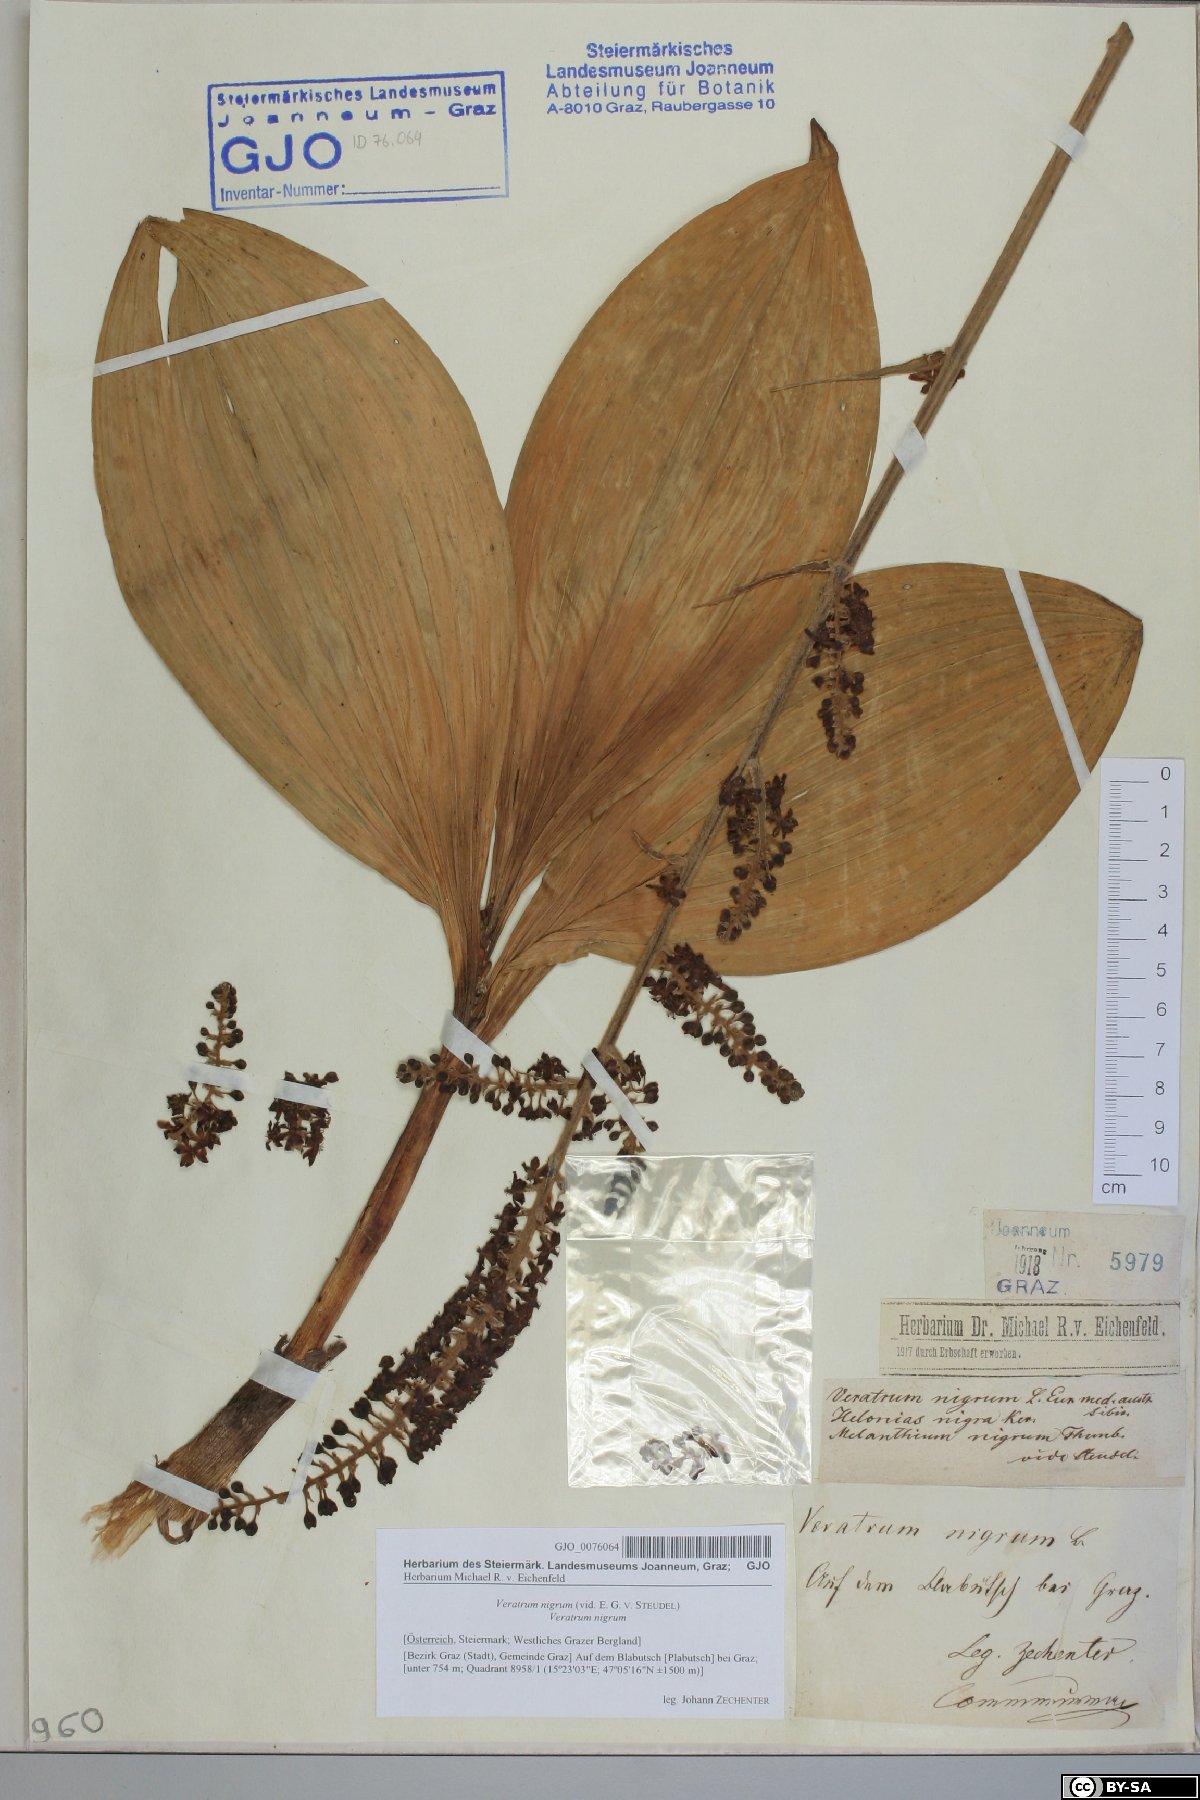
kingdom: Plantae
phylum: Tracheophyta
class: Liliopsida
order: Liliales
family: Melanthiaceae
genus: Veratrum
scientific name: Veratrum nigrum
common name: Black veratrum
